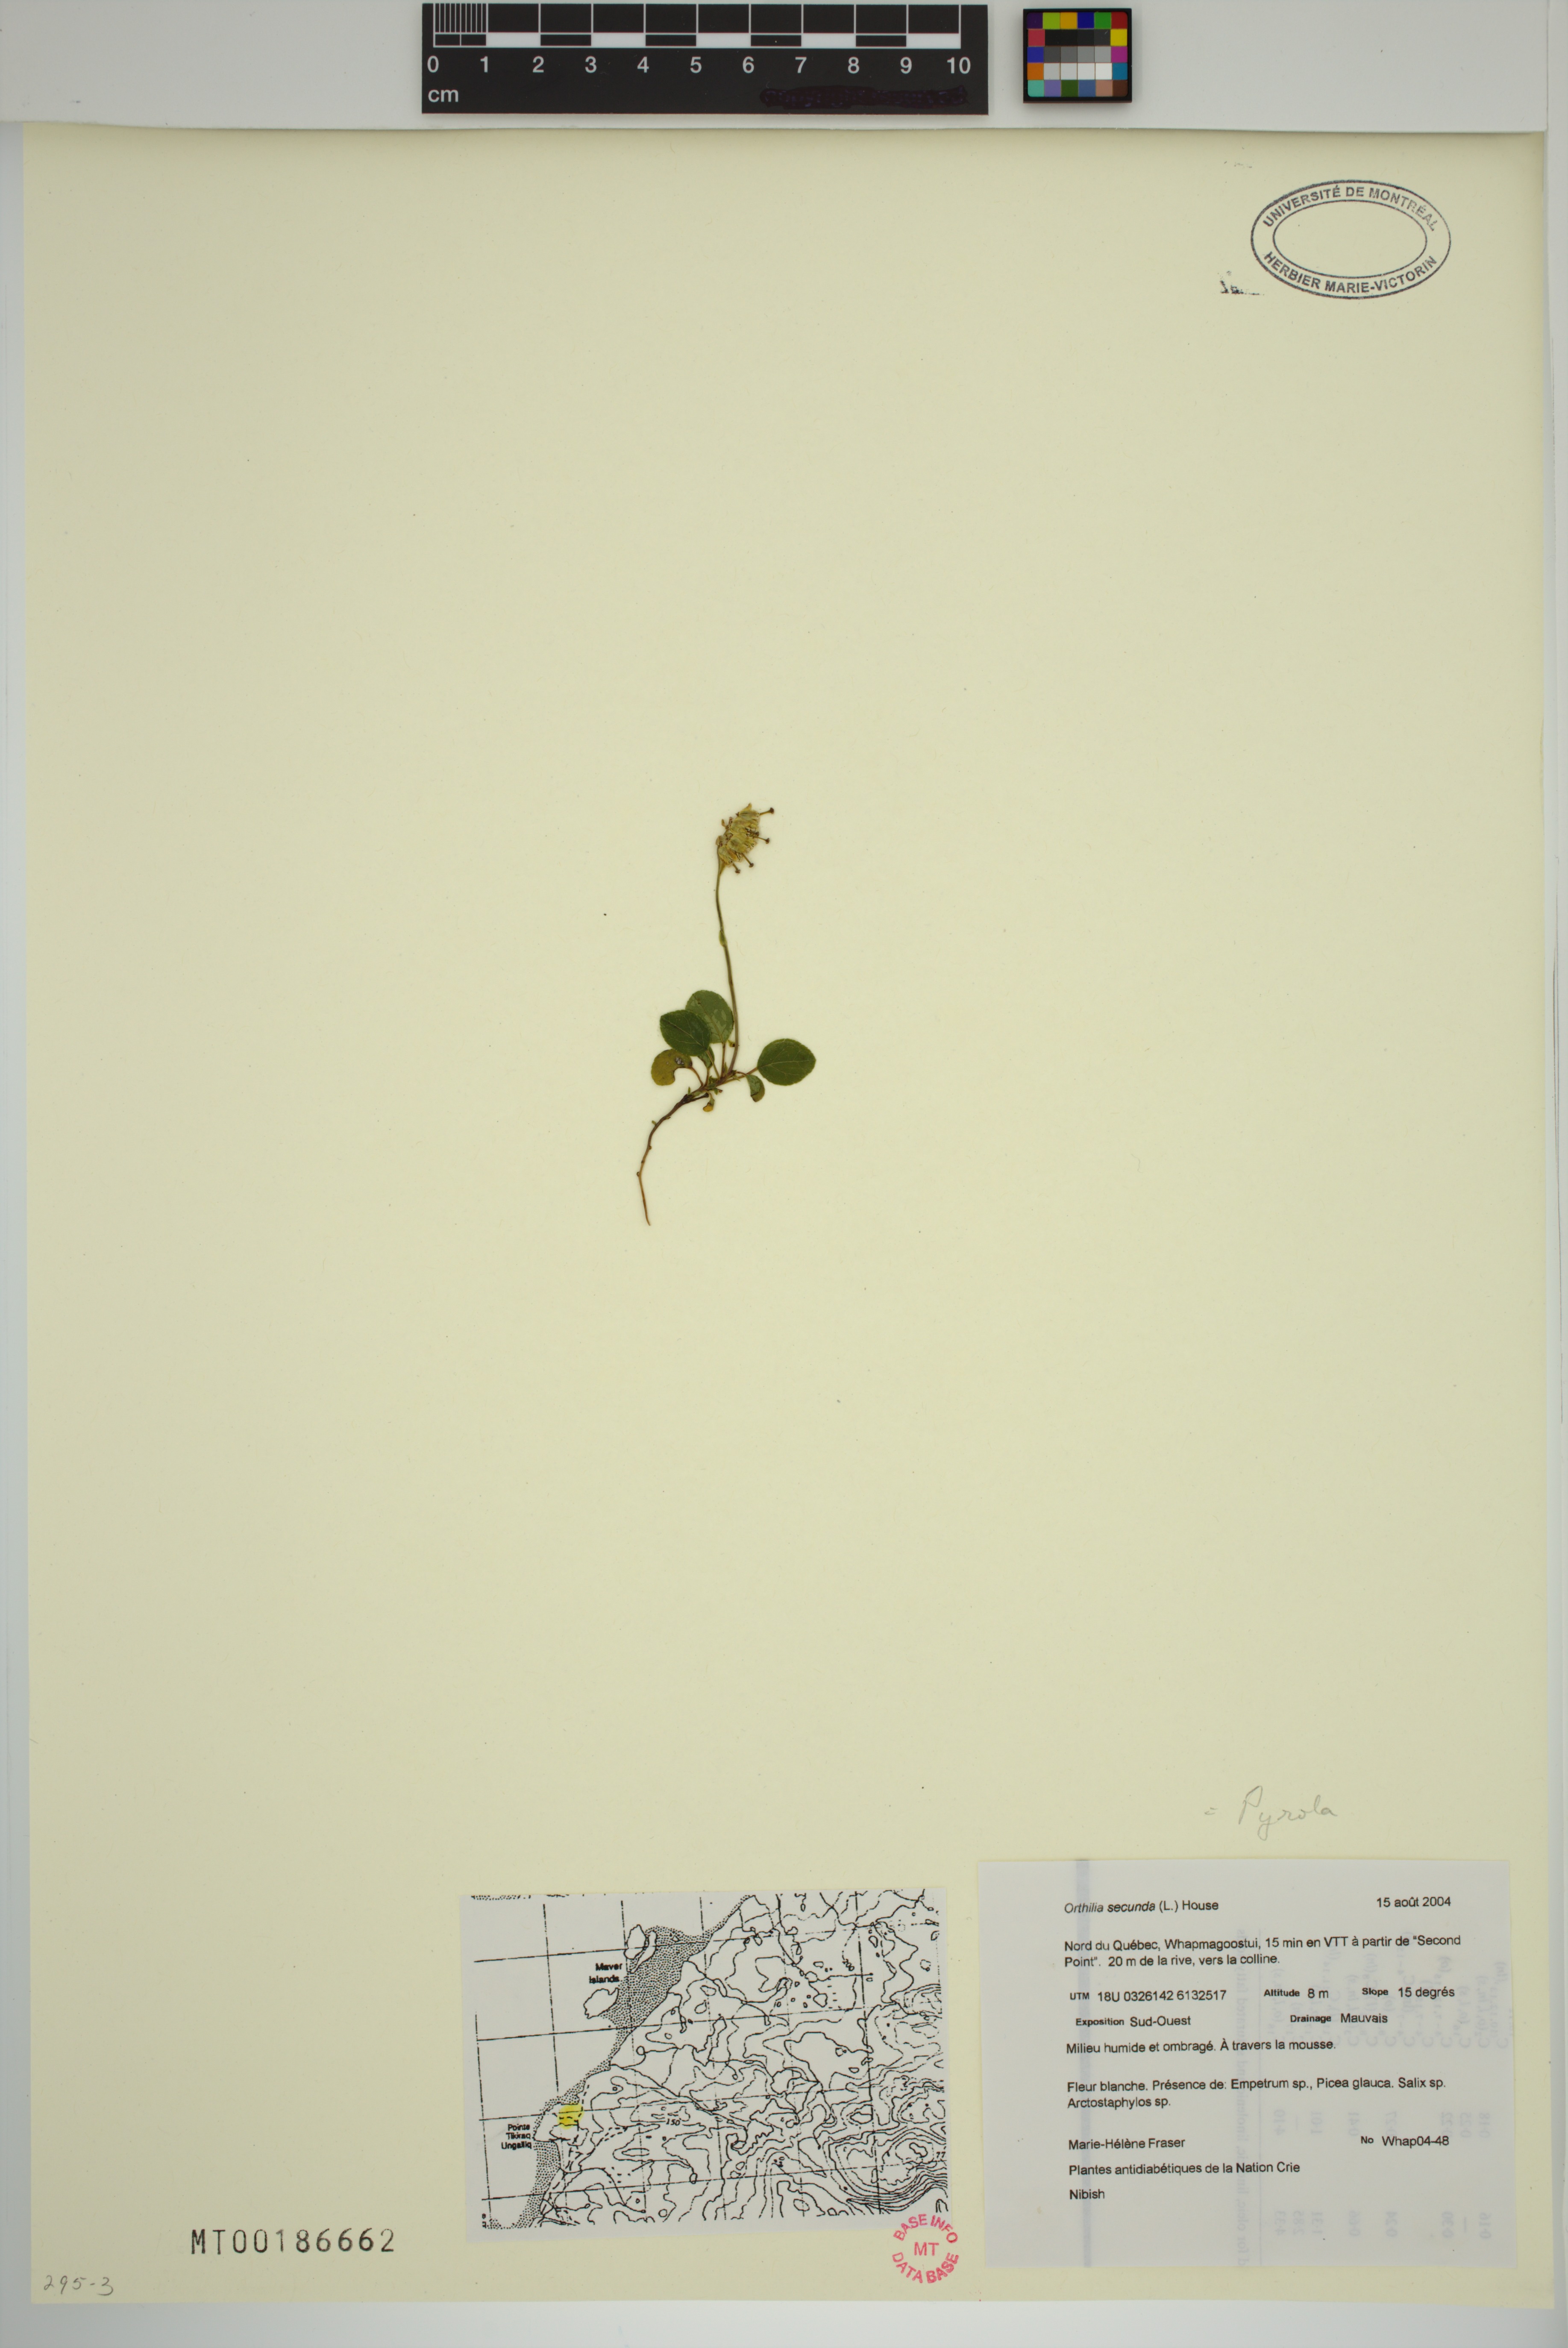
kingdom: Plantae
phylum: Tracheophyta
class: Magnoliopsida
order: Ericales
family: Ericaceae
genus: Orthilia
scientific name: Orthilia secunda
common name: One-sided orthilia
